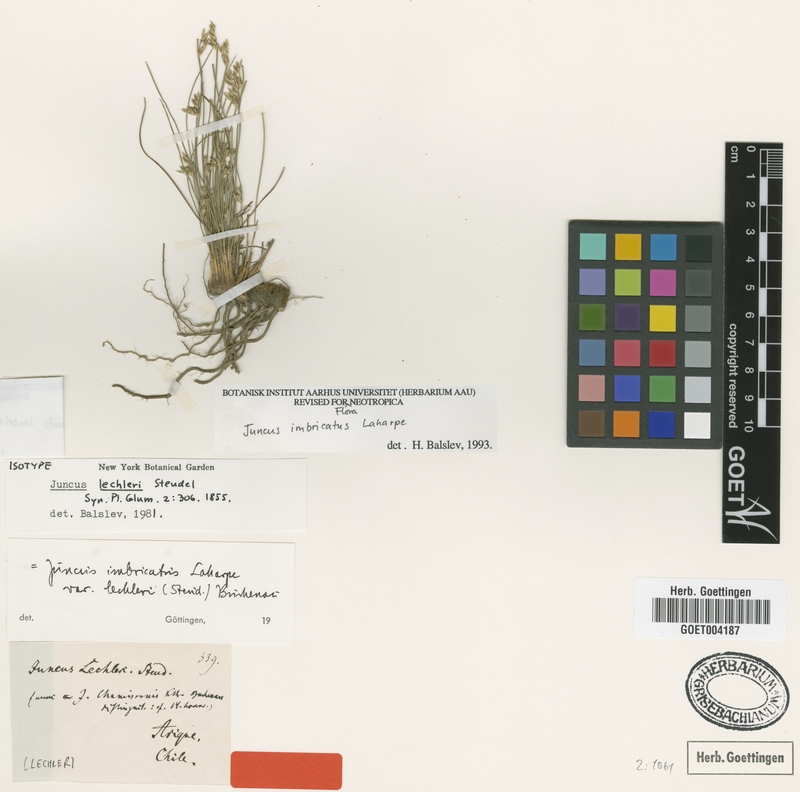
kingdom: Plantae
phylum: Tracheophyta
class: Liliopsida
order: Poales
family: Juncaceae
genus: Juncus
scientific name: Juncus imbricatus
